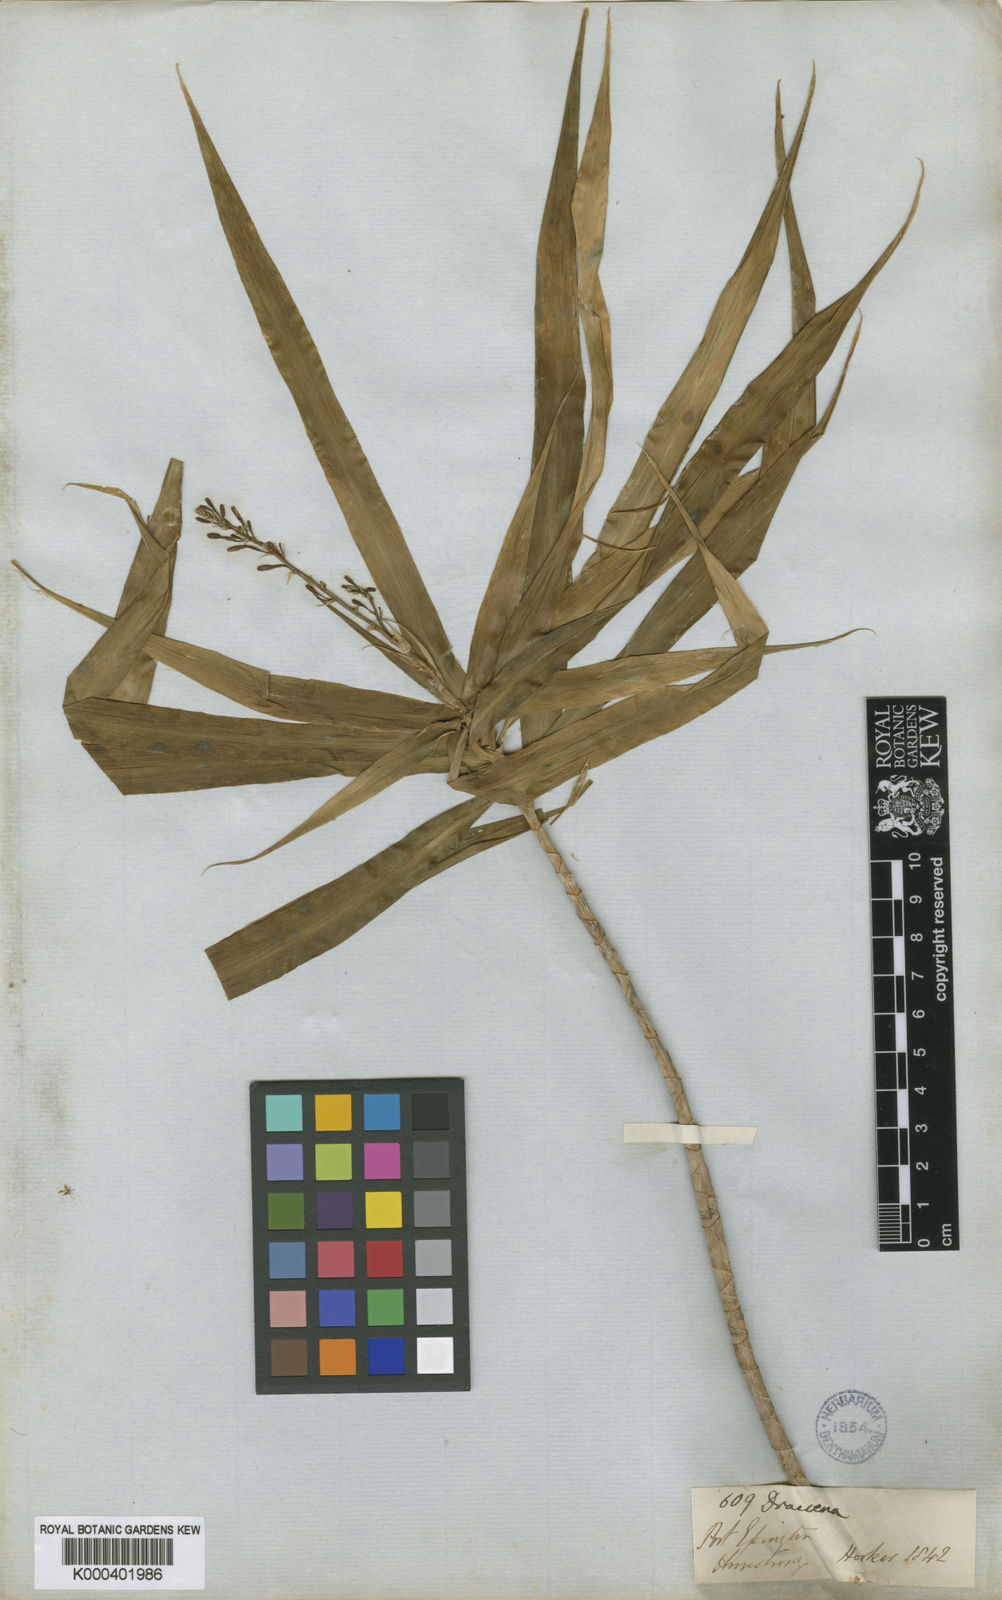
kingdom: Plantae
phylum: Tracheophyta
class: Liliopsida
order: Asparagales
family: Asparagaceae
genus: Dracaena
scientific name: Dracaena angustifolia
